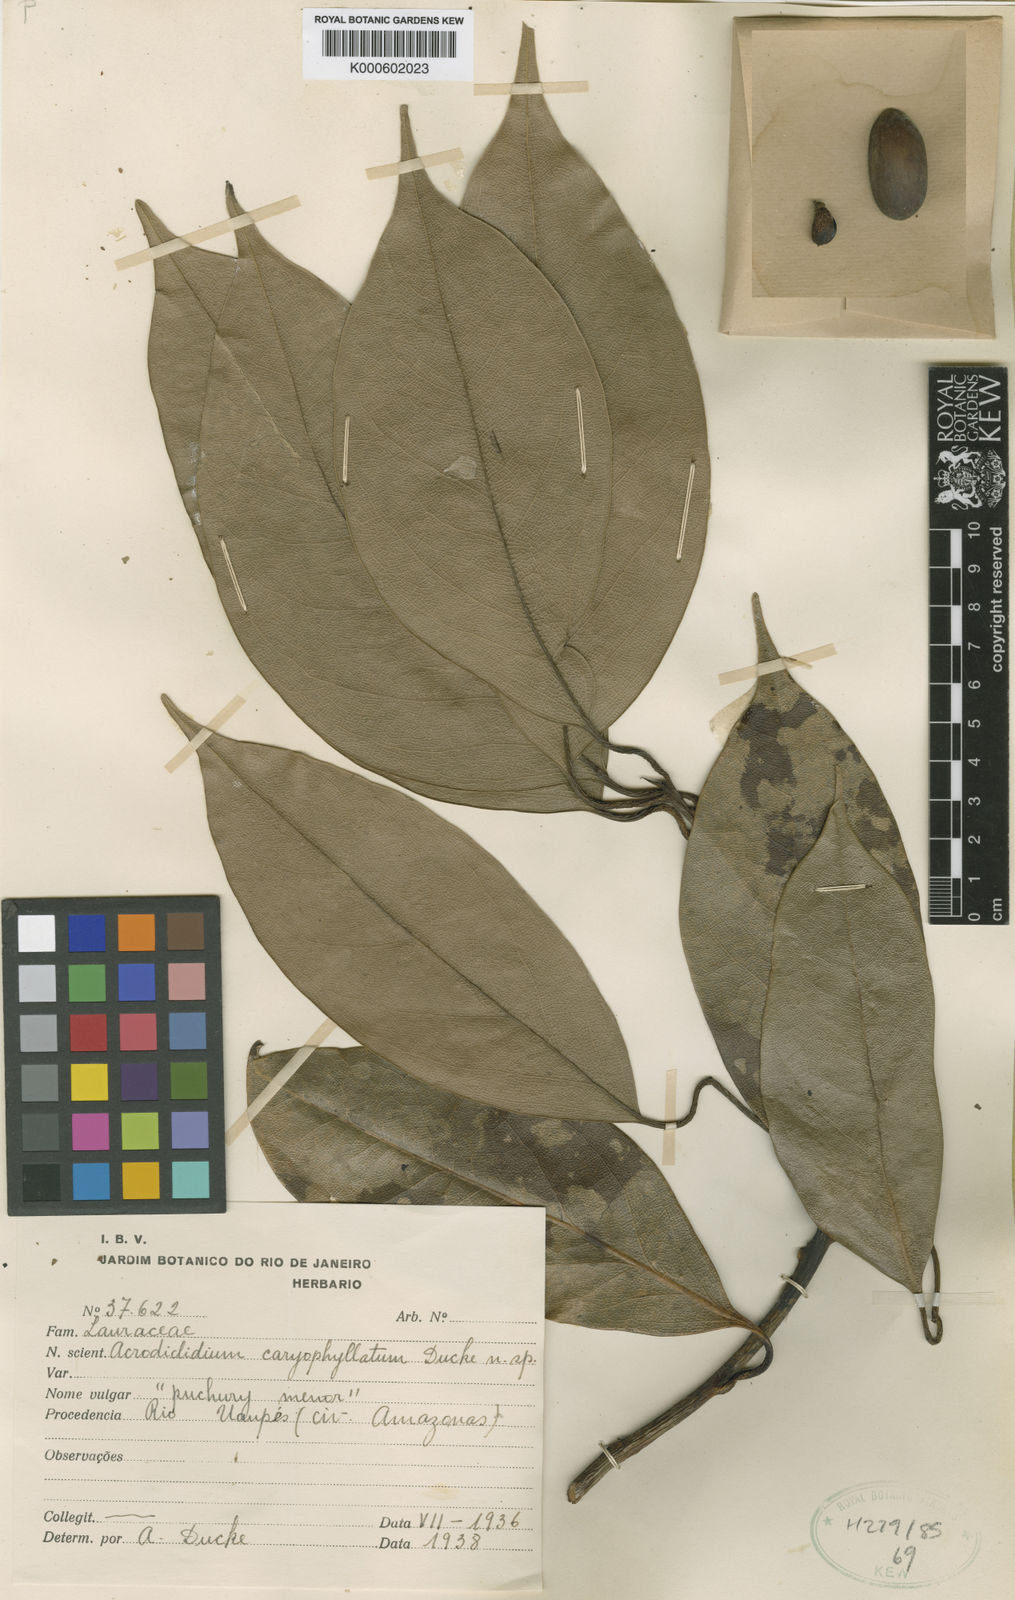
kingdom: Plantae
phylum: Tracheophyta
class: Magnoliopsida
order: Laurales
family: Lauraceae
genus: Aniba
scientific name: Aniba puchury-minor
